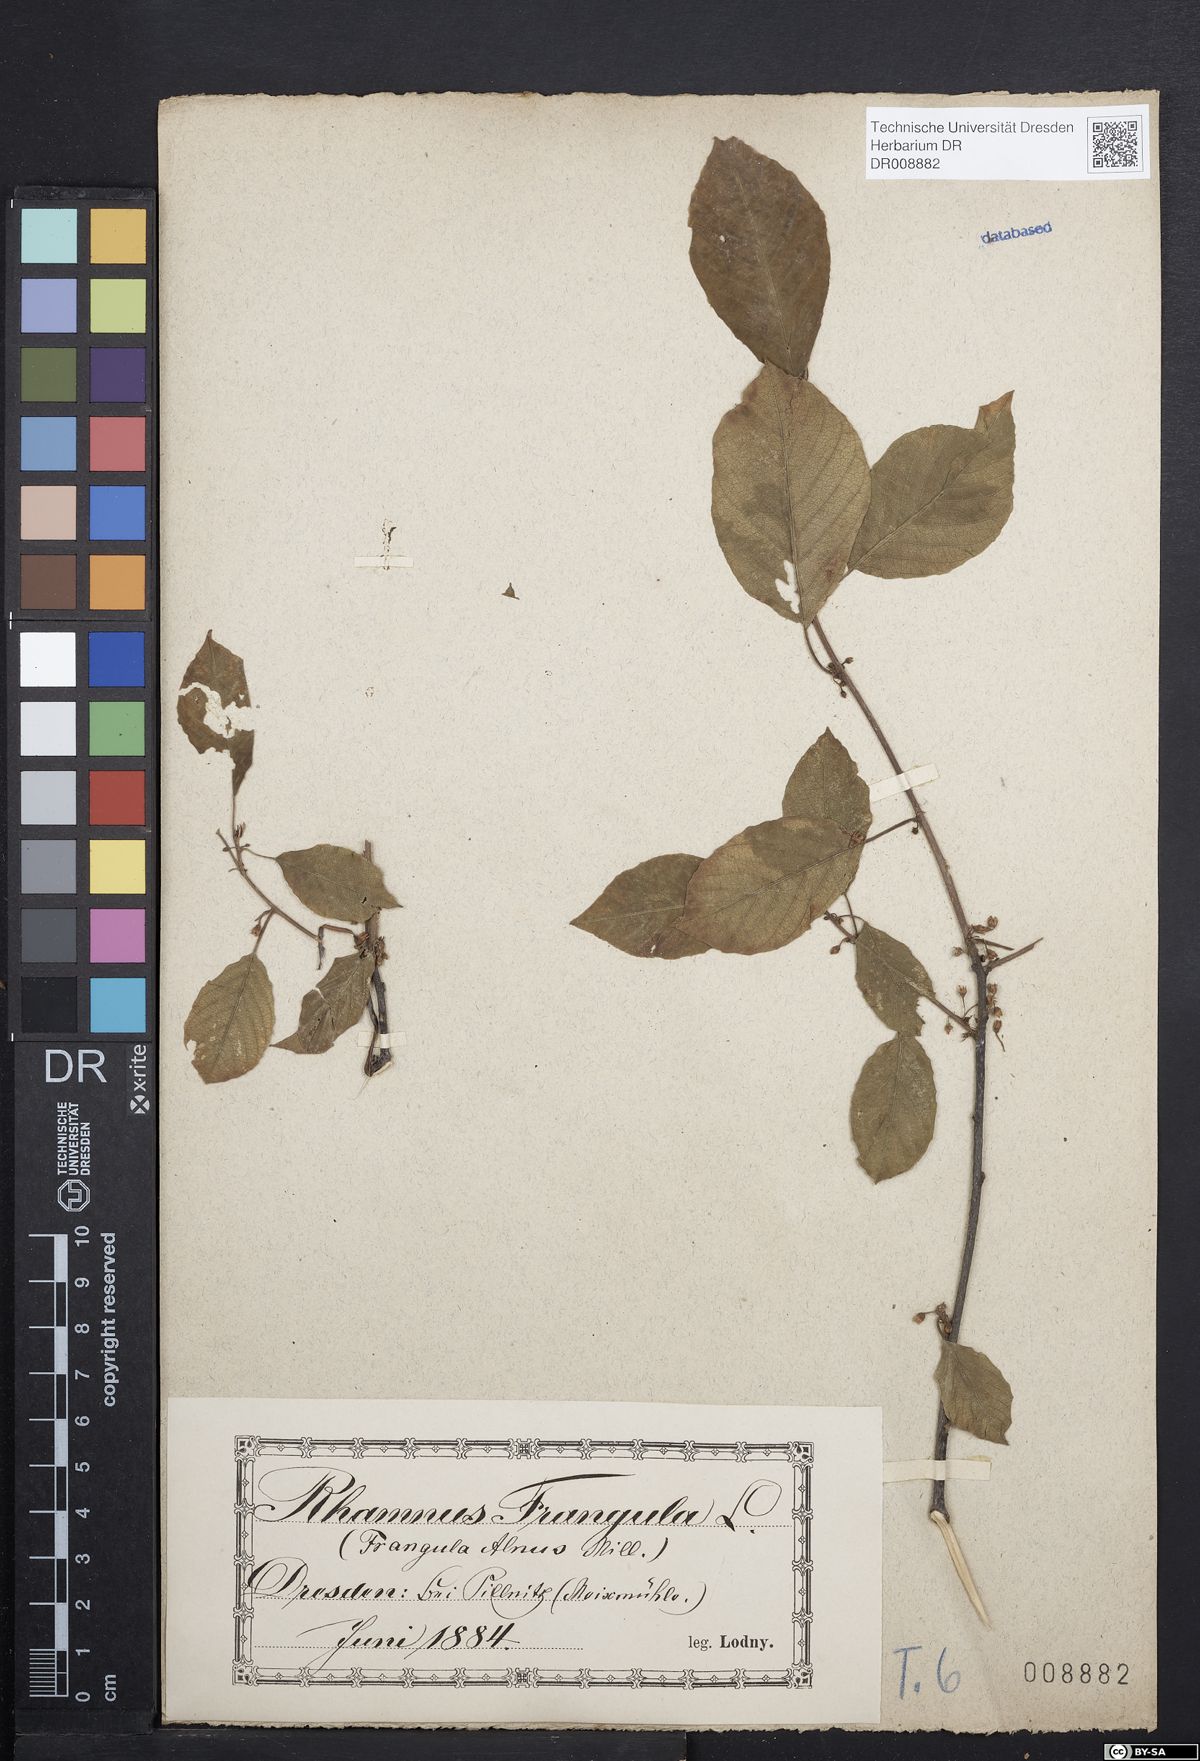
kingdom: Plantae
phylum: Tracheophyta
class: Magnoliopsida
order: Rosales
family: Rhamnaceae
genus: Frangula
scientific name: Frangula alnus
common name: Alder buckthorn
